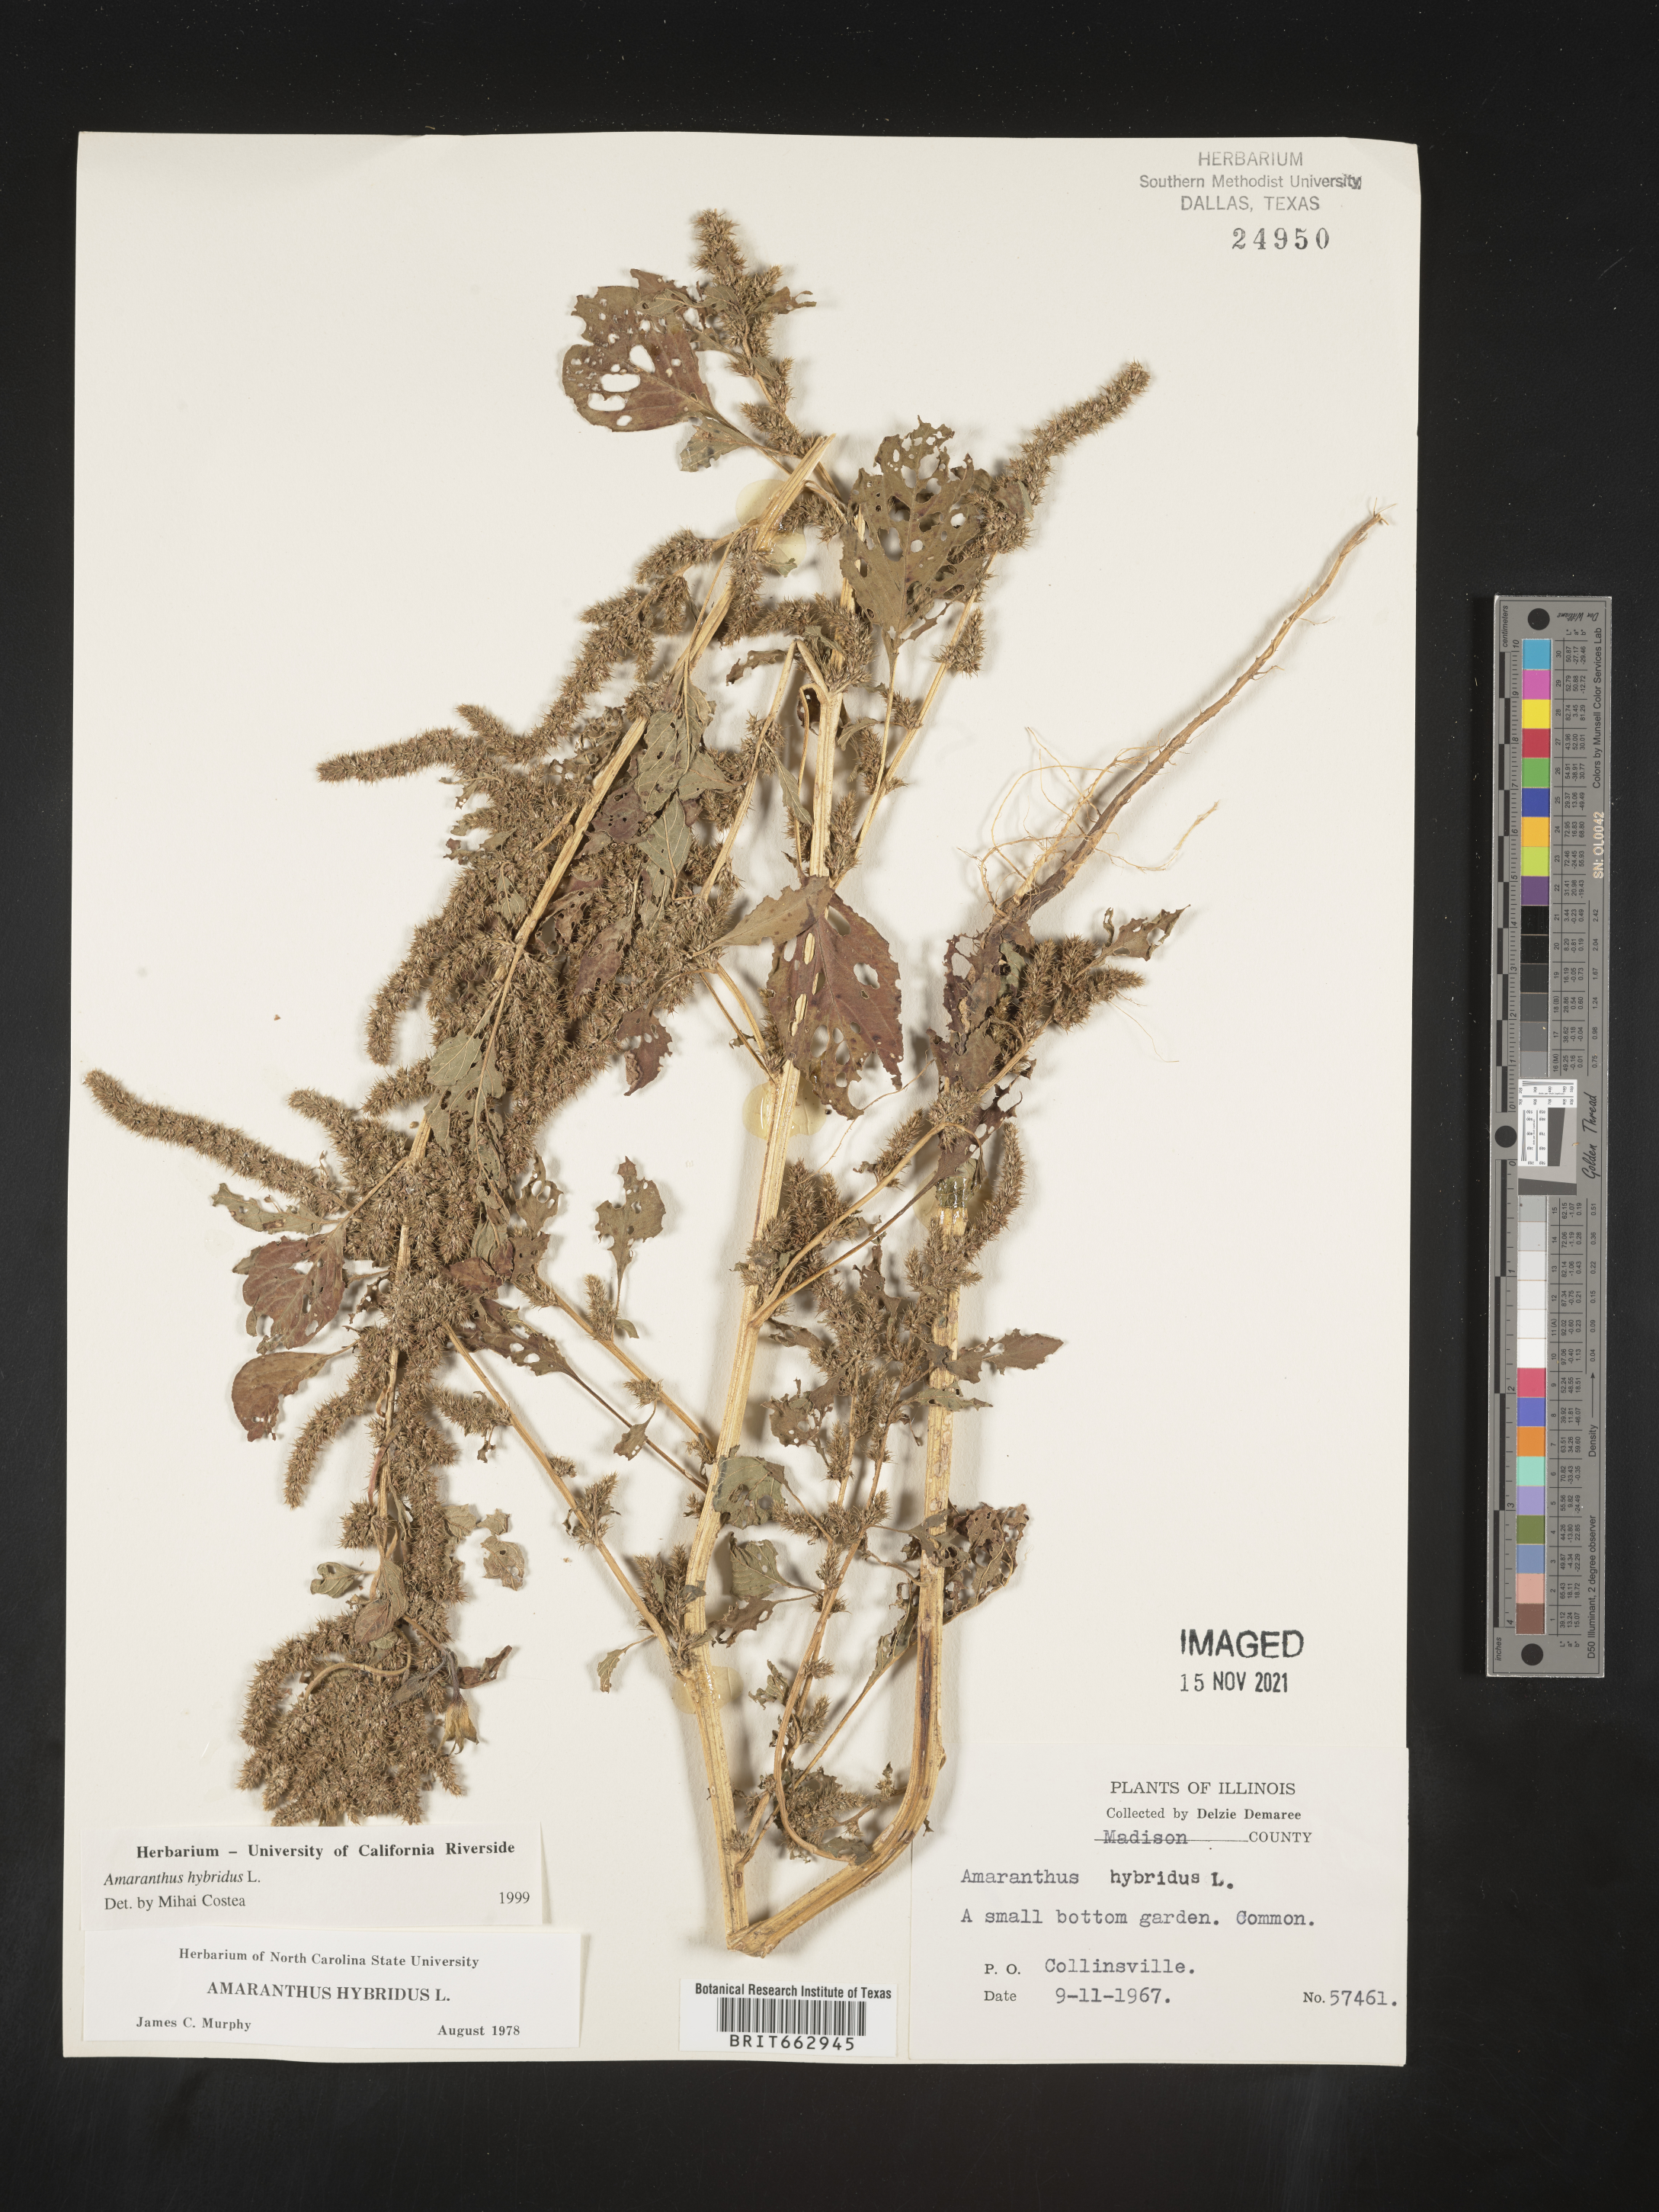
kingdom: Plantae
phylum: Tracheophyta
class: Magnoliopsida
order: Caryophyllales
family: Amaranthaceae
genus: Amaranthus
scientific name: Amaranthus hybridus
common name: Green amaranth
